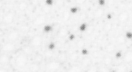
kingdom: Animalia
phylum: Chordata
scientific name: Chordata
